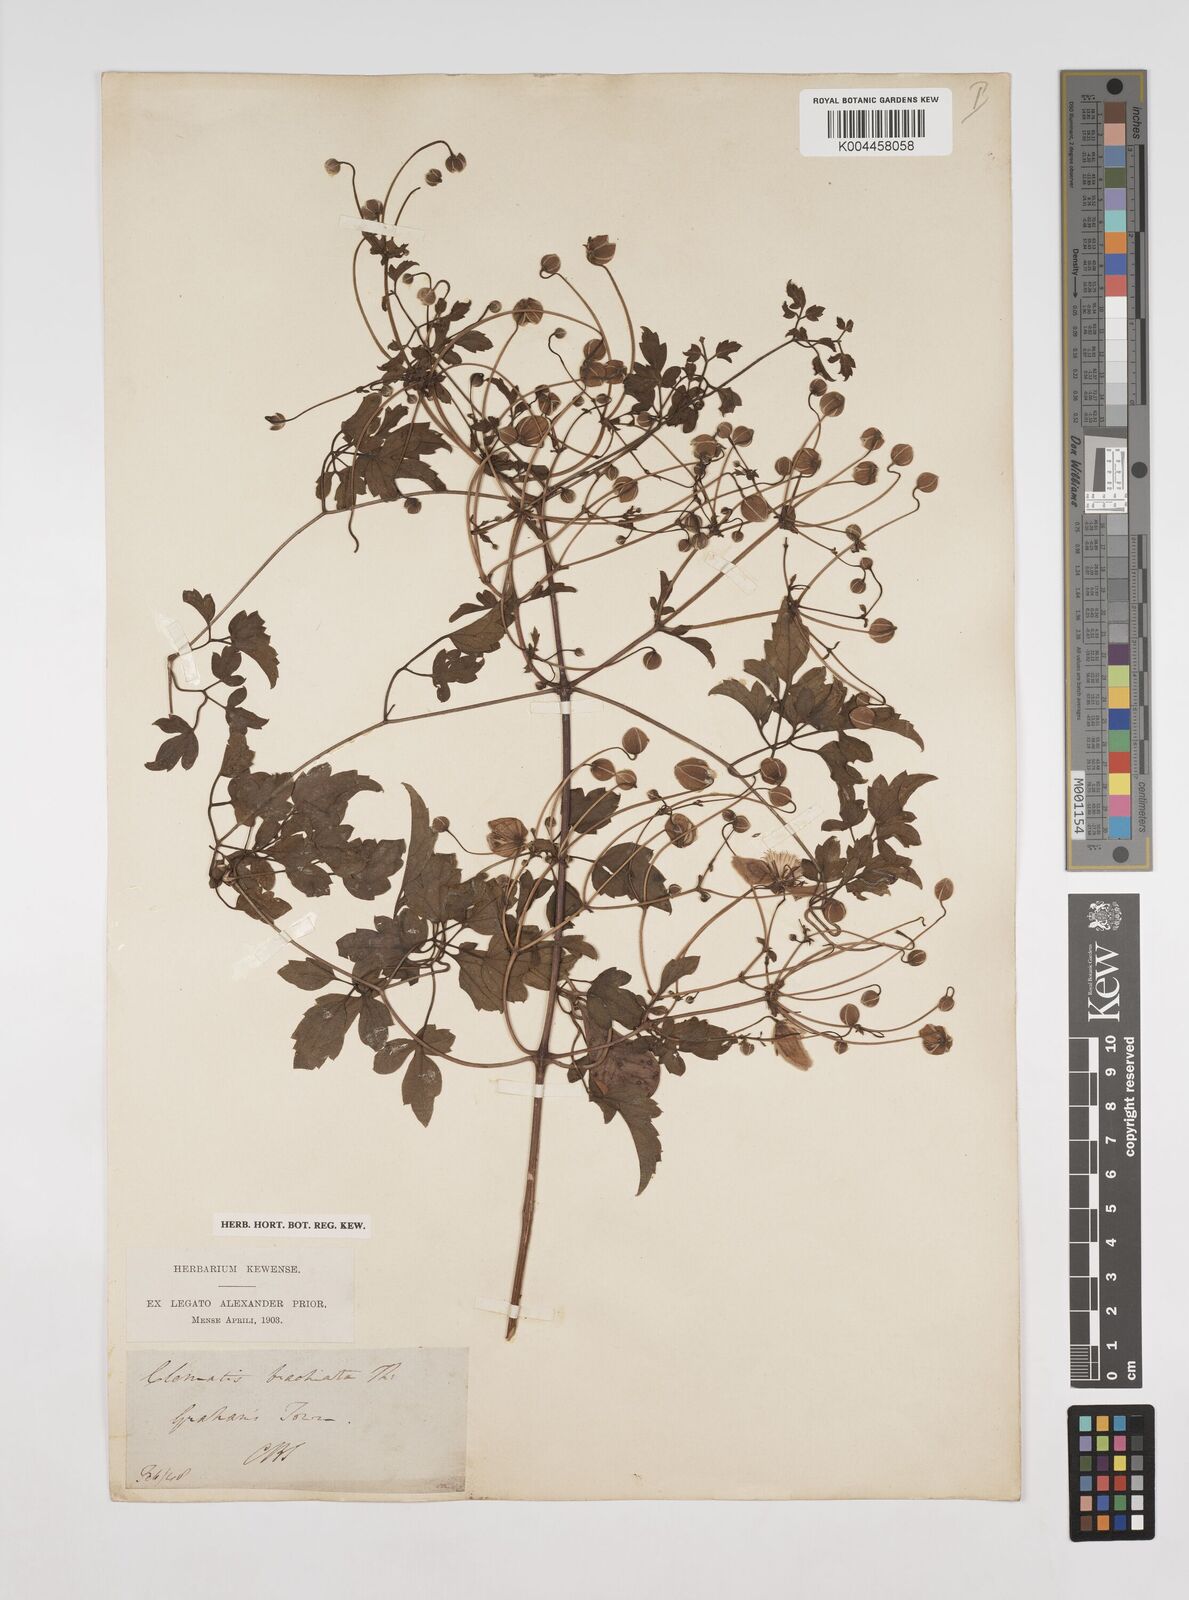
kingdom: Plantae
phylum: Tracheophyta
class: Magnoliopsida
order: Ranunculales
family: Ranunculaceae
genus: Clematis
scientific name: Clematis brachiata
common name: Traveler's-joy
